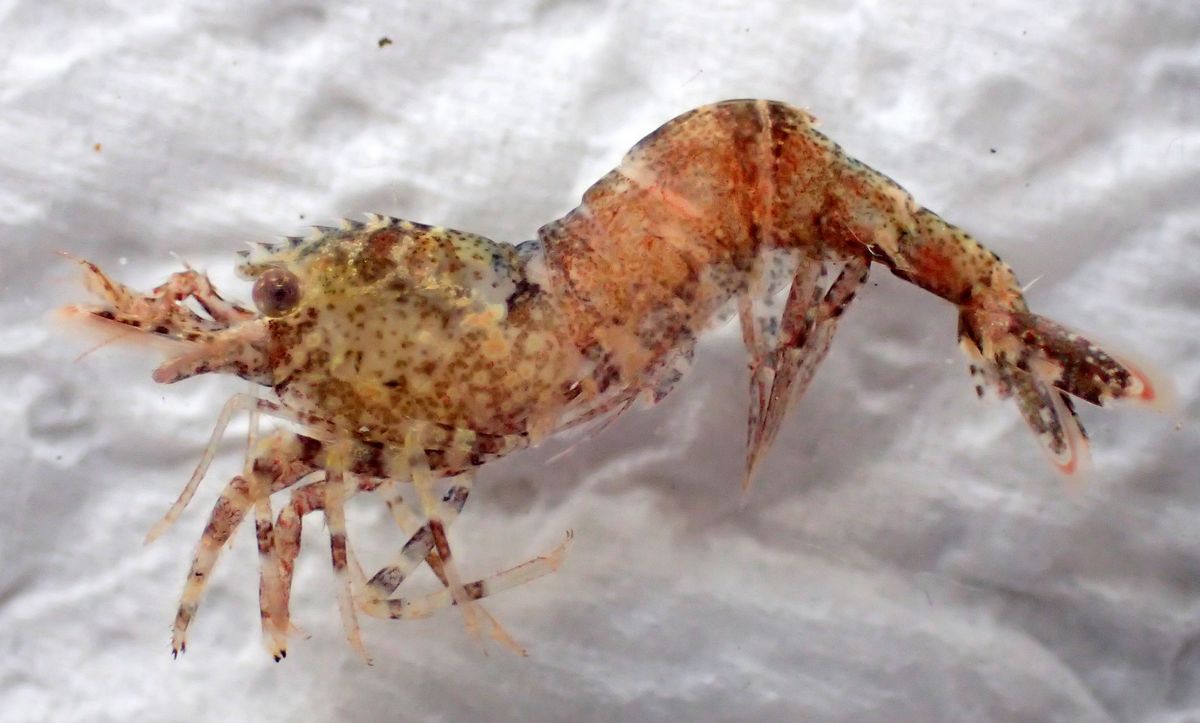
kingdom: Animalia
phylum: Arthropoda
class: Malacostraca
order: Decapoda
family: Thoridae
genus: Spirontocaris
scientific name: Spirontocaris phippsii
